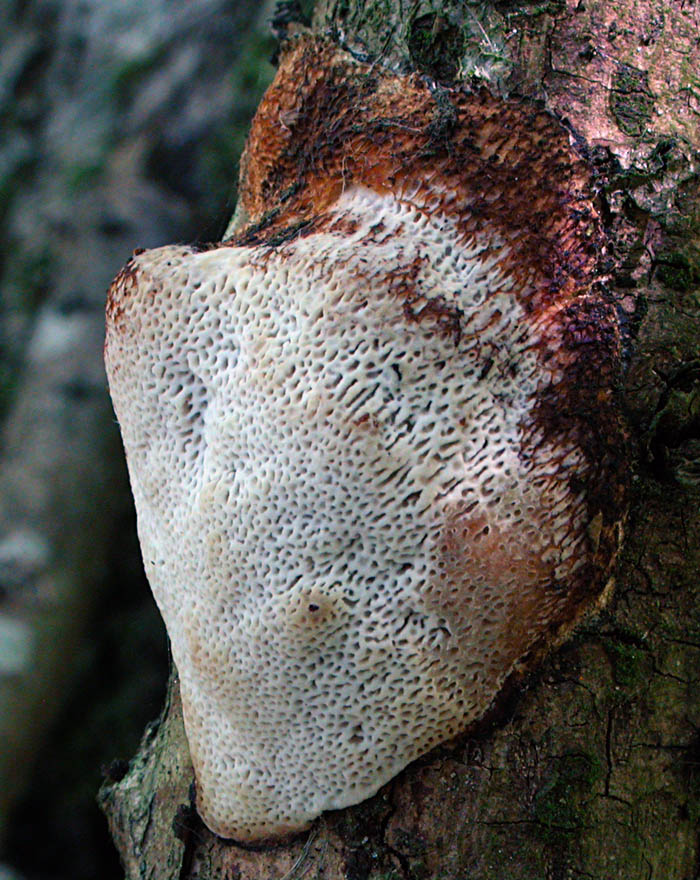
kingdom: Fungi
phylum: Basidiomycota
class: Agaricomycetes
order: Polyporales
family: Polyporaceae
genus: Szczepkamyces
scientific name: Szczepkamyces campestris
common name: hasselporesvamp
